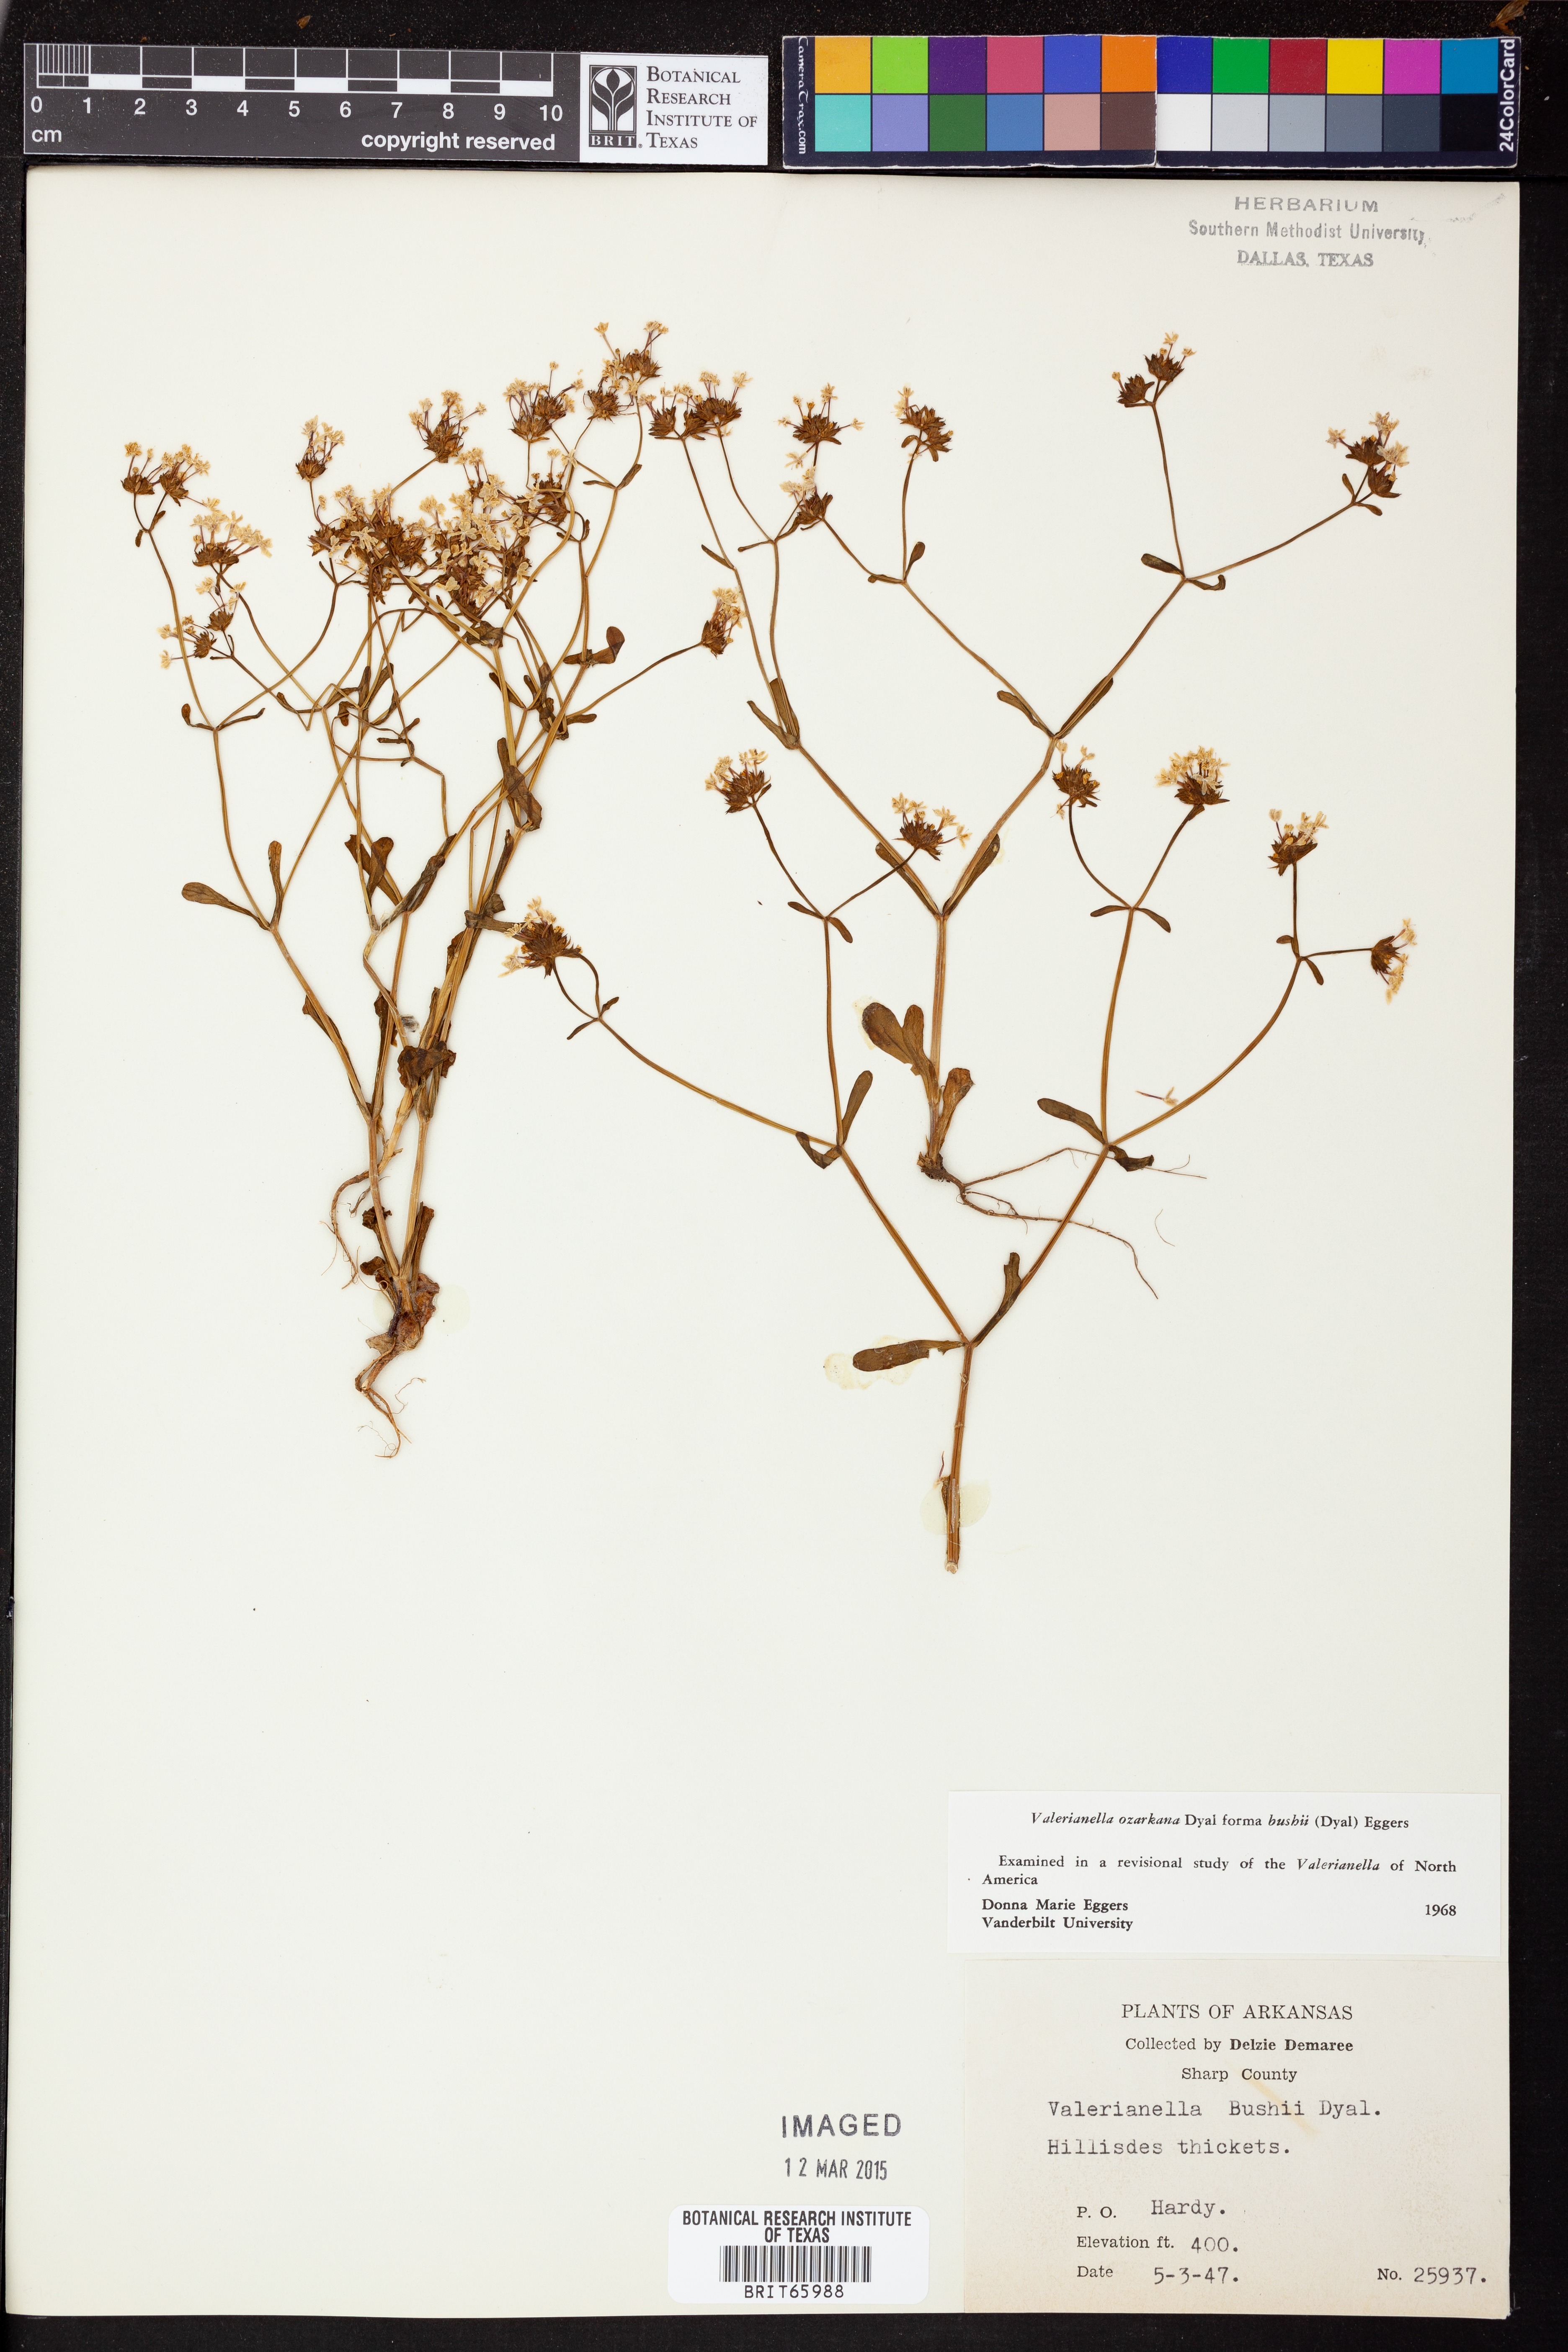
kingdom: Plantae
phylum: Tracheophyta
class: Magnoliopsida
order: Dipsacales
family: Caprifoliaceae
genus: Valerianella
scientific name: Valerianella ozarkana
